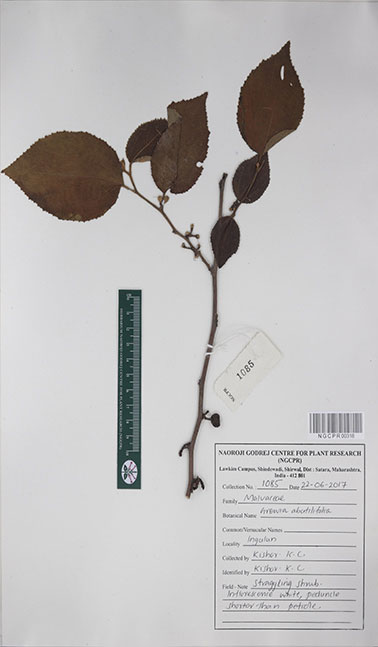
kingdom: Plantae
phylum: Tracheophyta
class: Magnoliopsida
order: Malvales
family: Malvaceae
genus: Grewia
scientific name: Grewia abutilifolia
